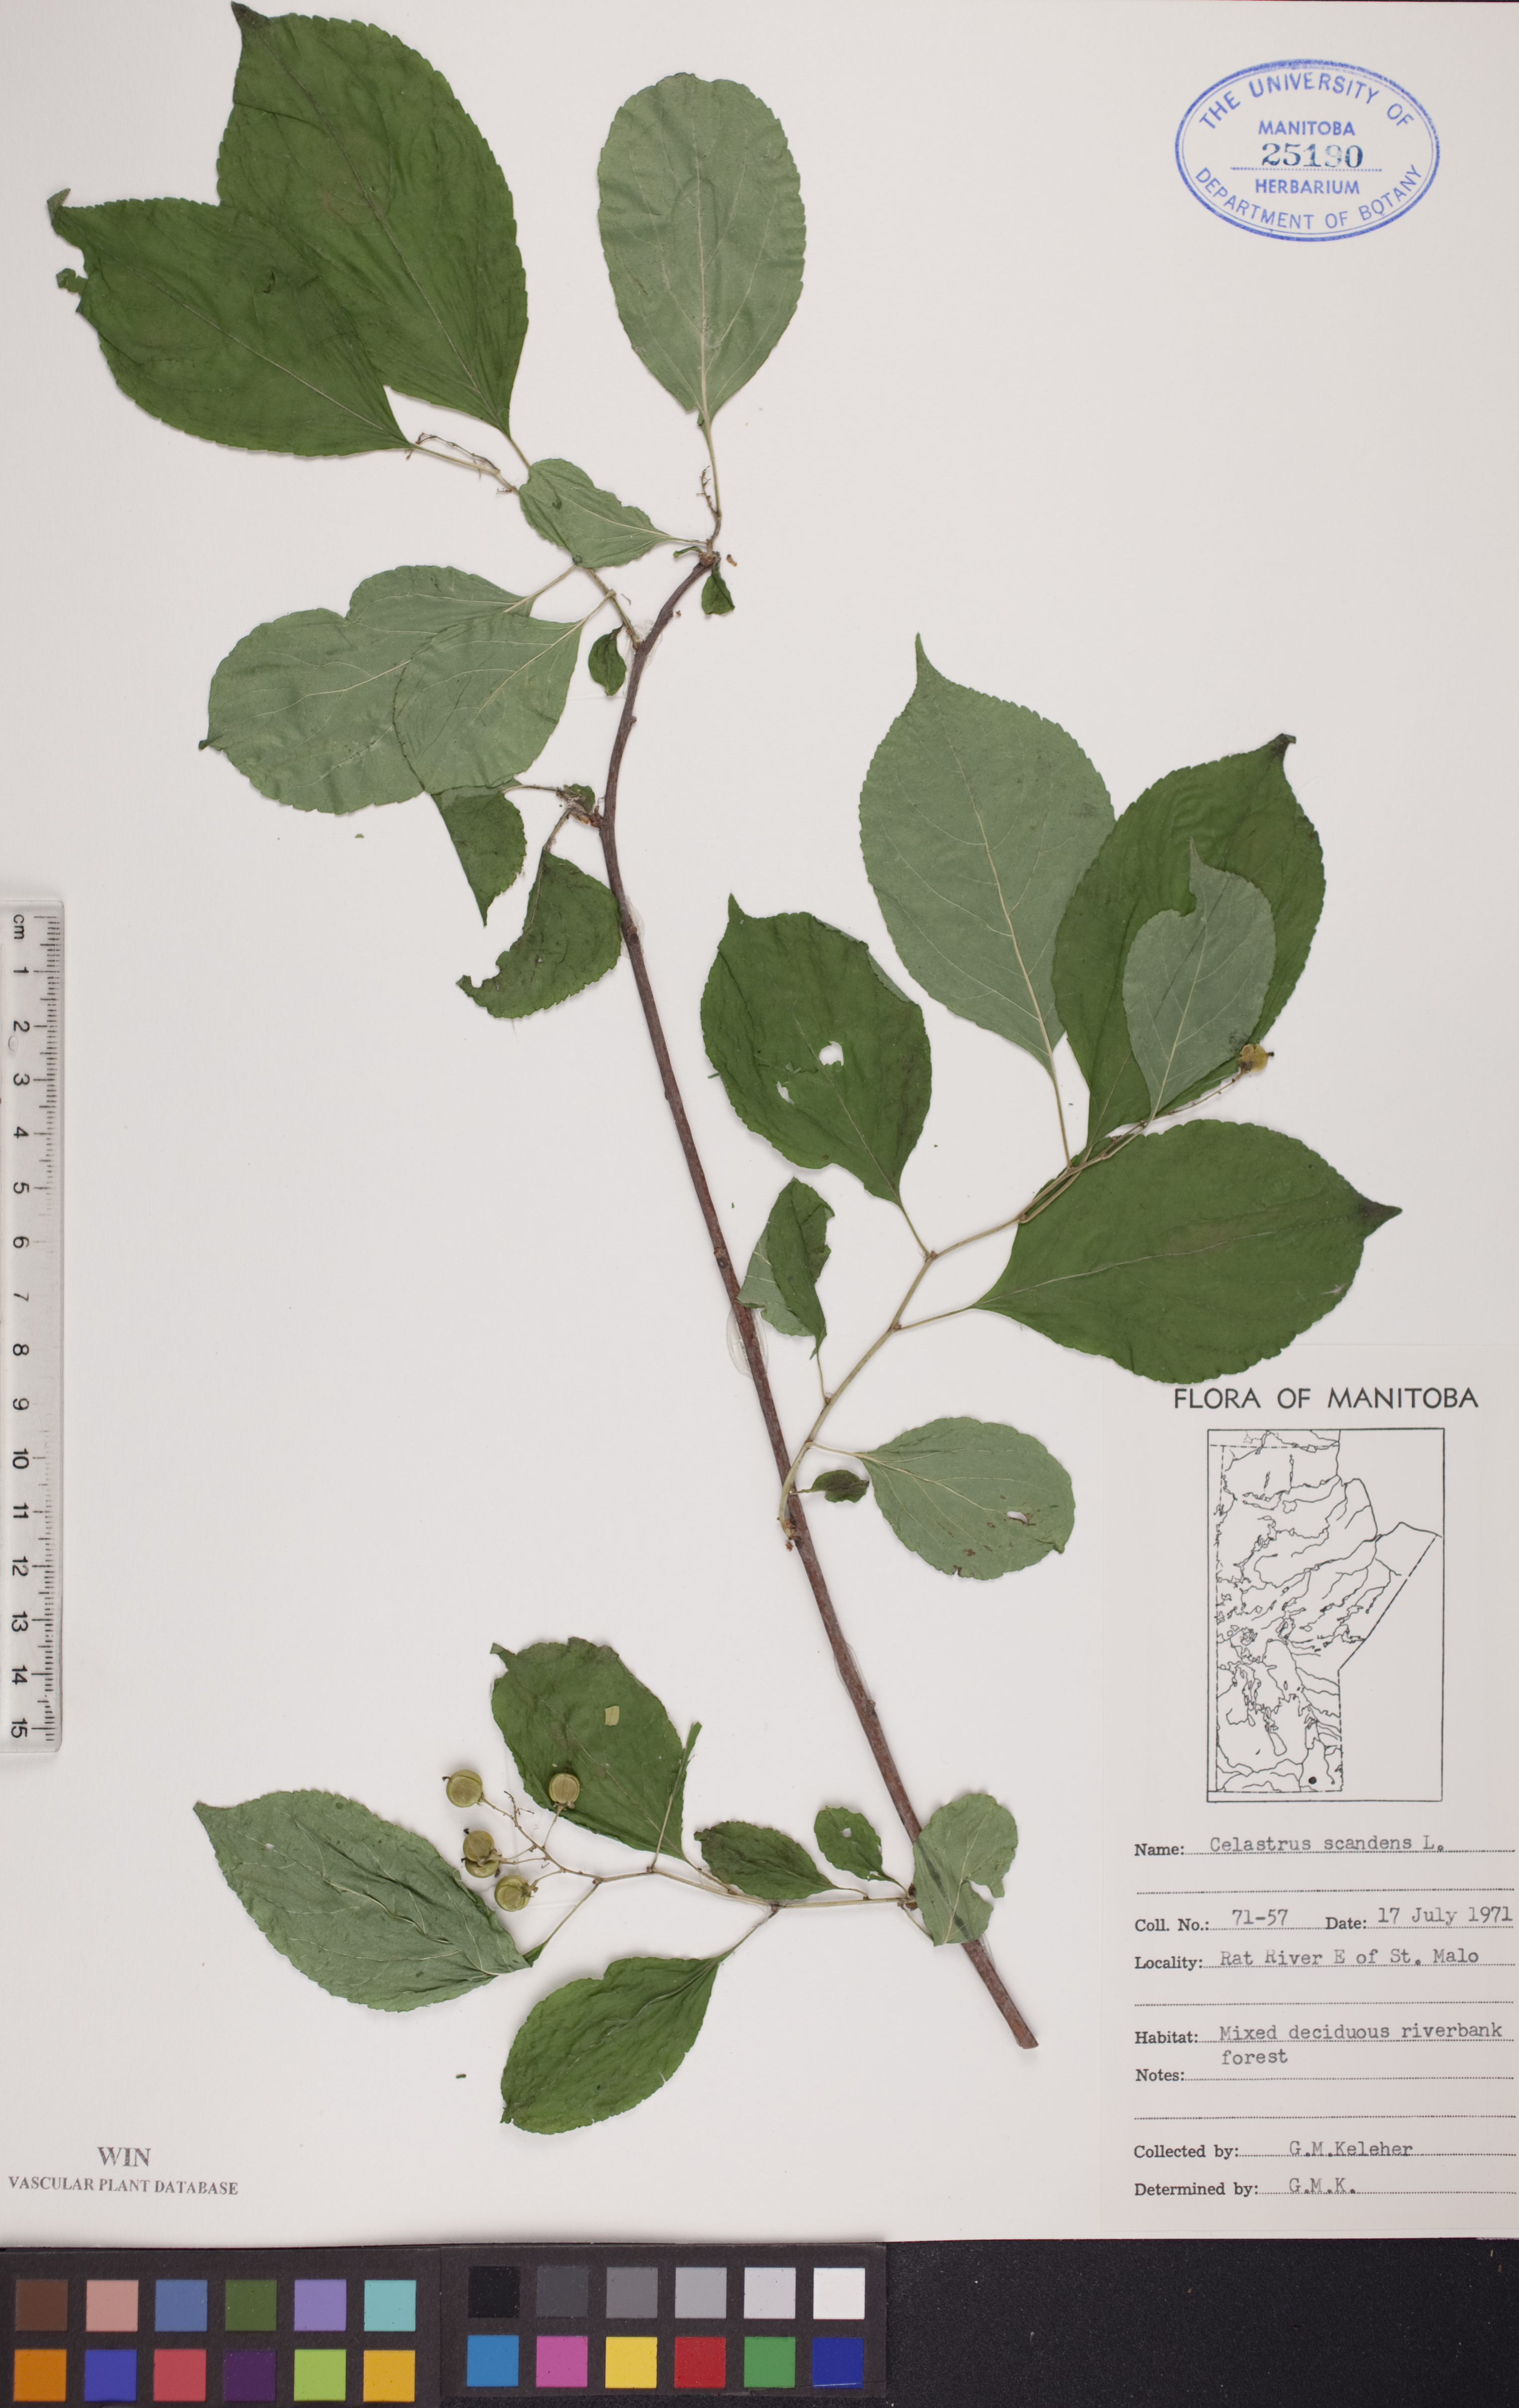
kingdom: Plantae
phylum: Tracheophyta
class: Magnoliopsida
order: Celastrales
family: Celastraceae
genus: Celastrus
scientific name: Celastrus scandens
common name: American bittersweet
